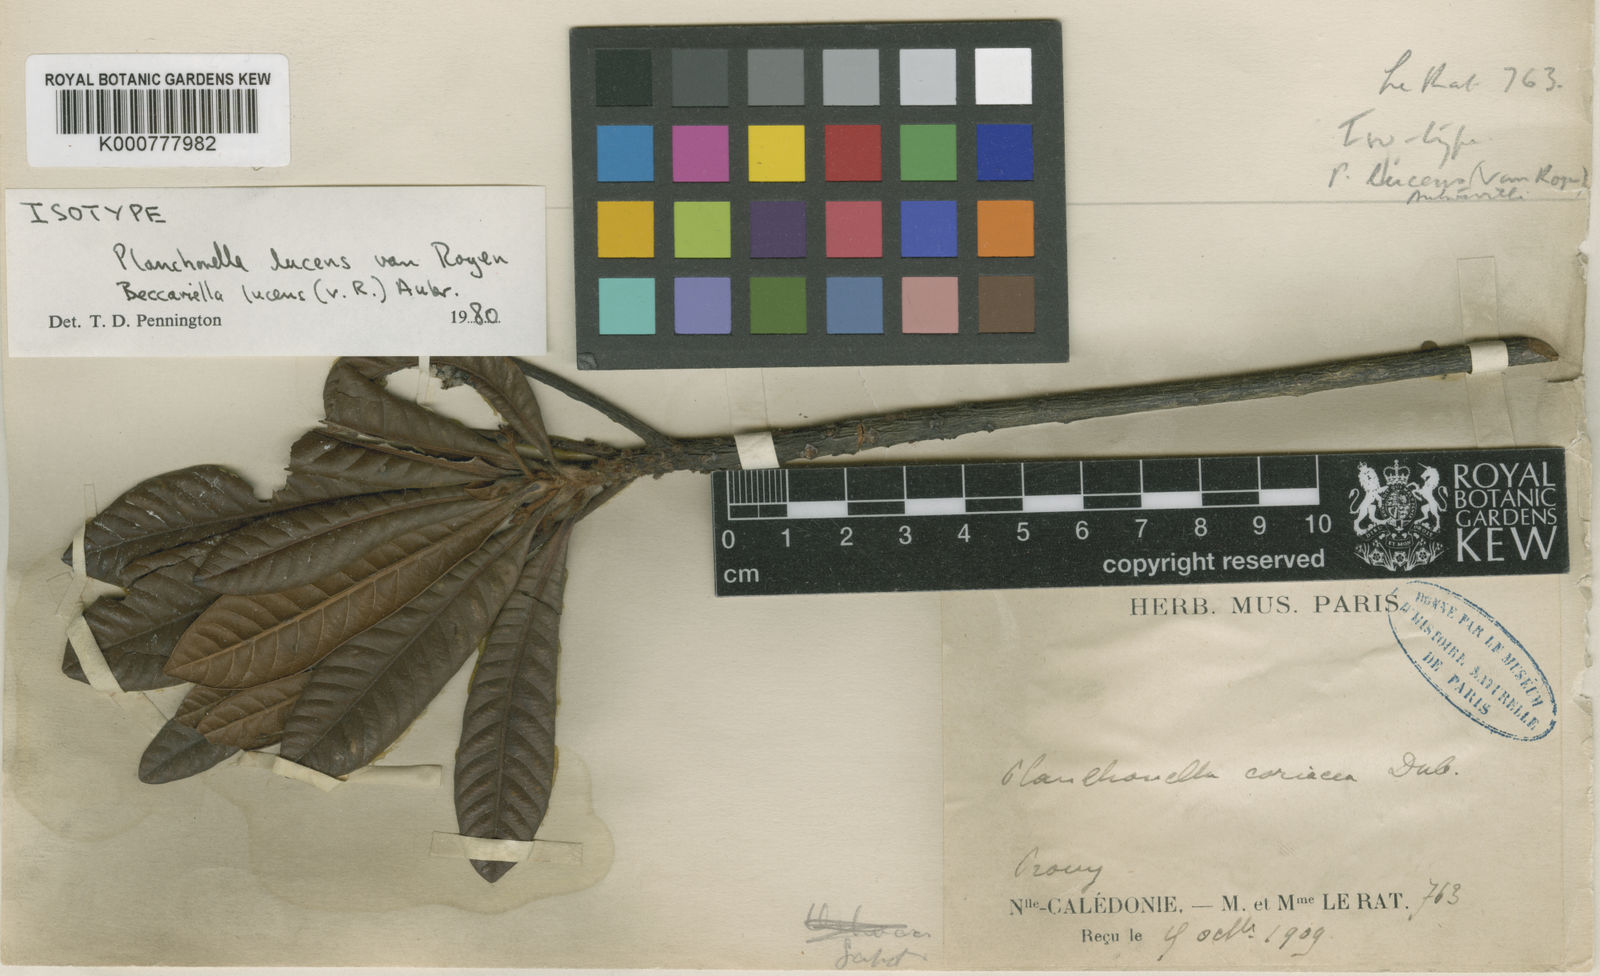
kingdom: Plantae
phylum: Tracheophyta
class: Magnoliopsida
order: Ericales
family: Sapotaceae
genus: Pouteria
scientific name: Pouteria lucens
